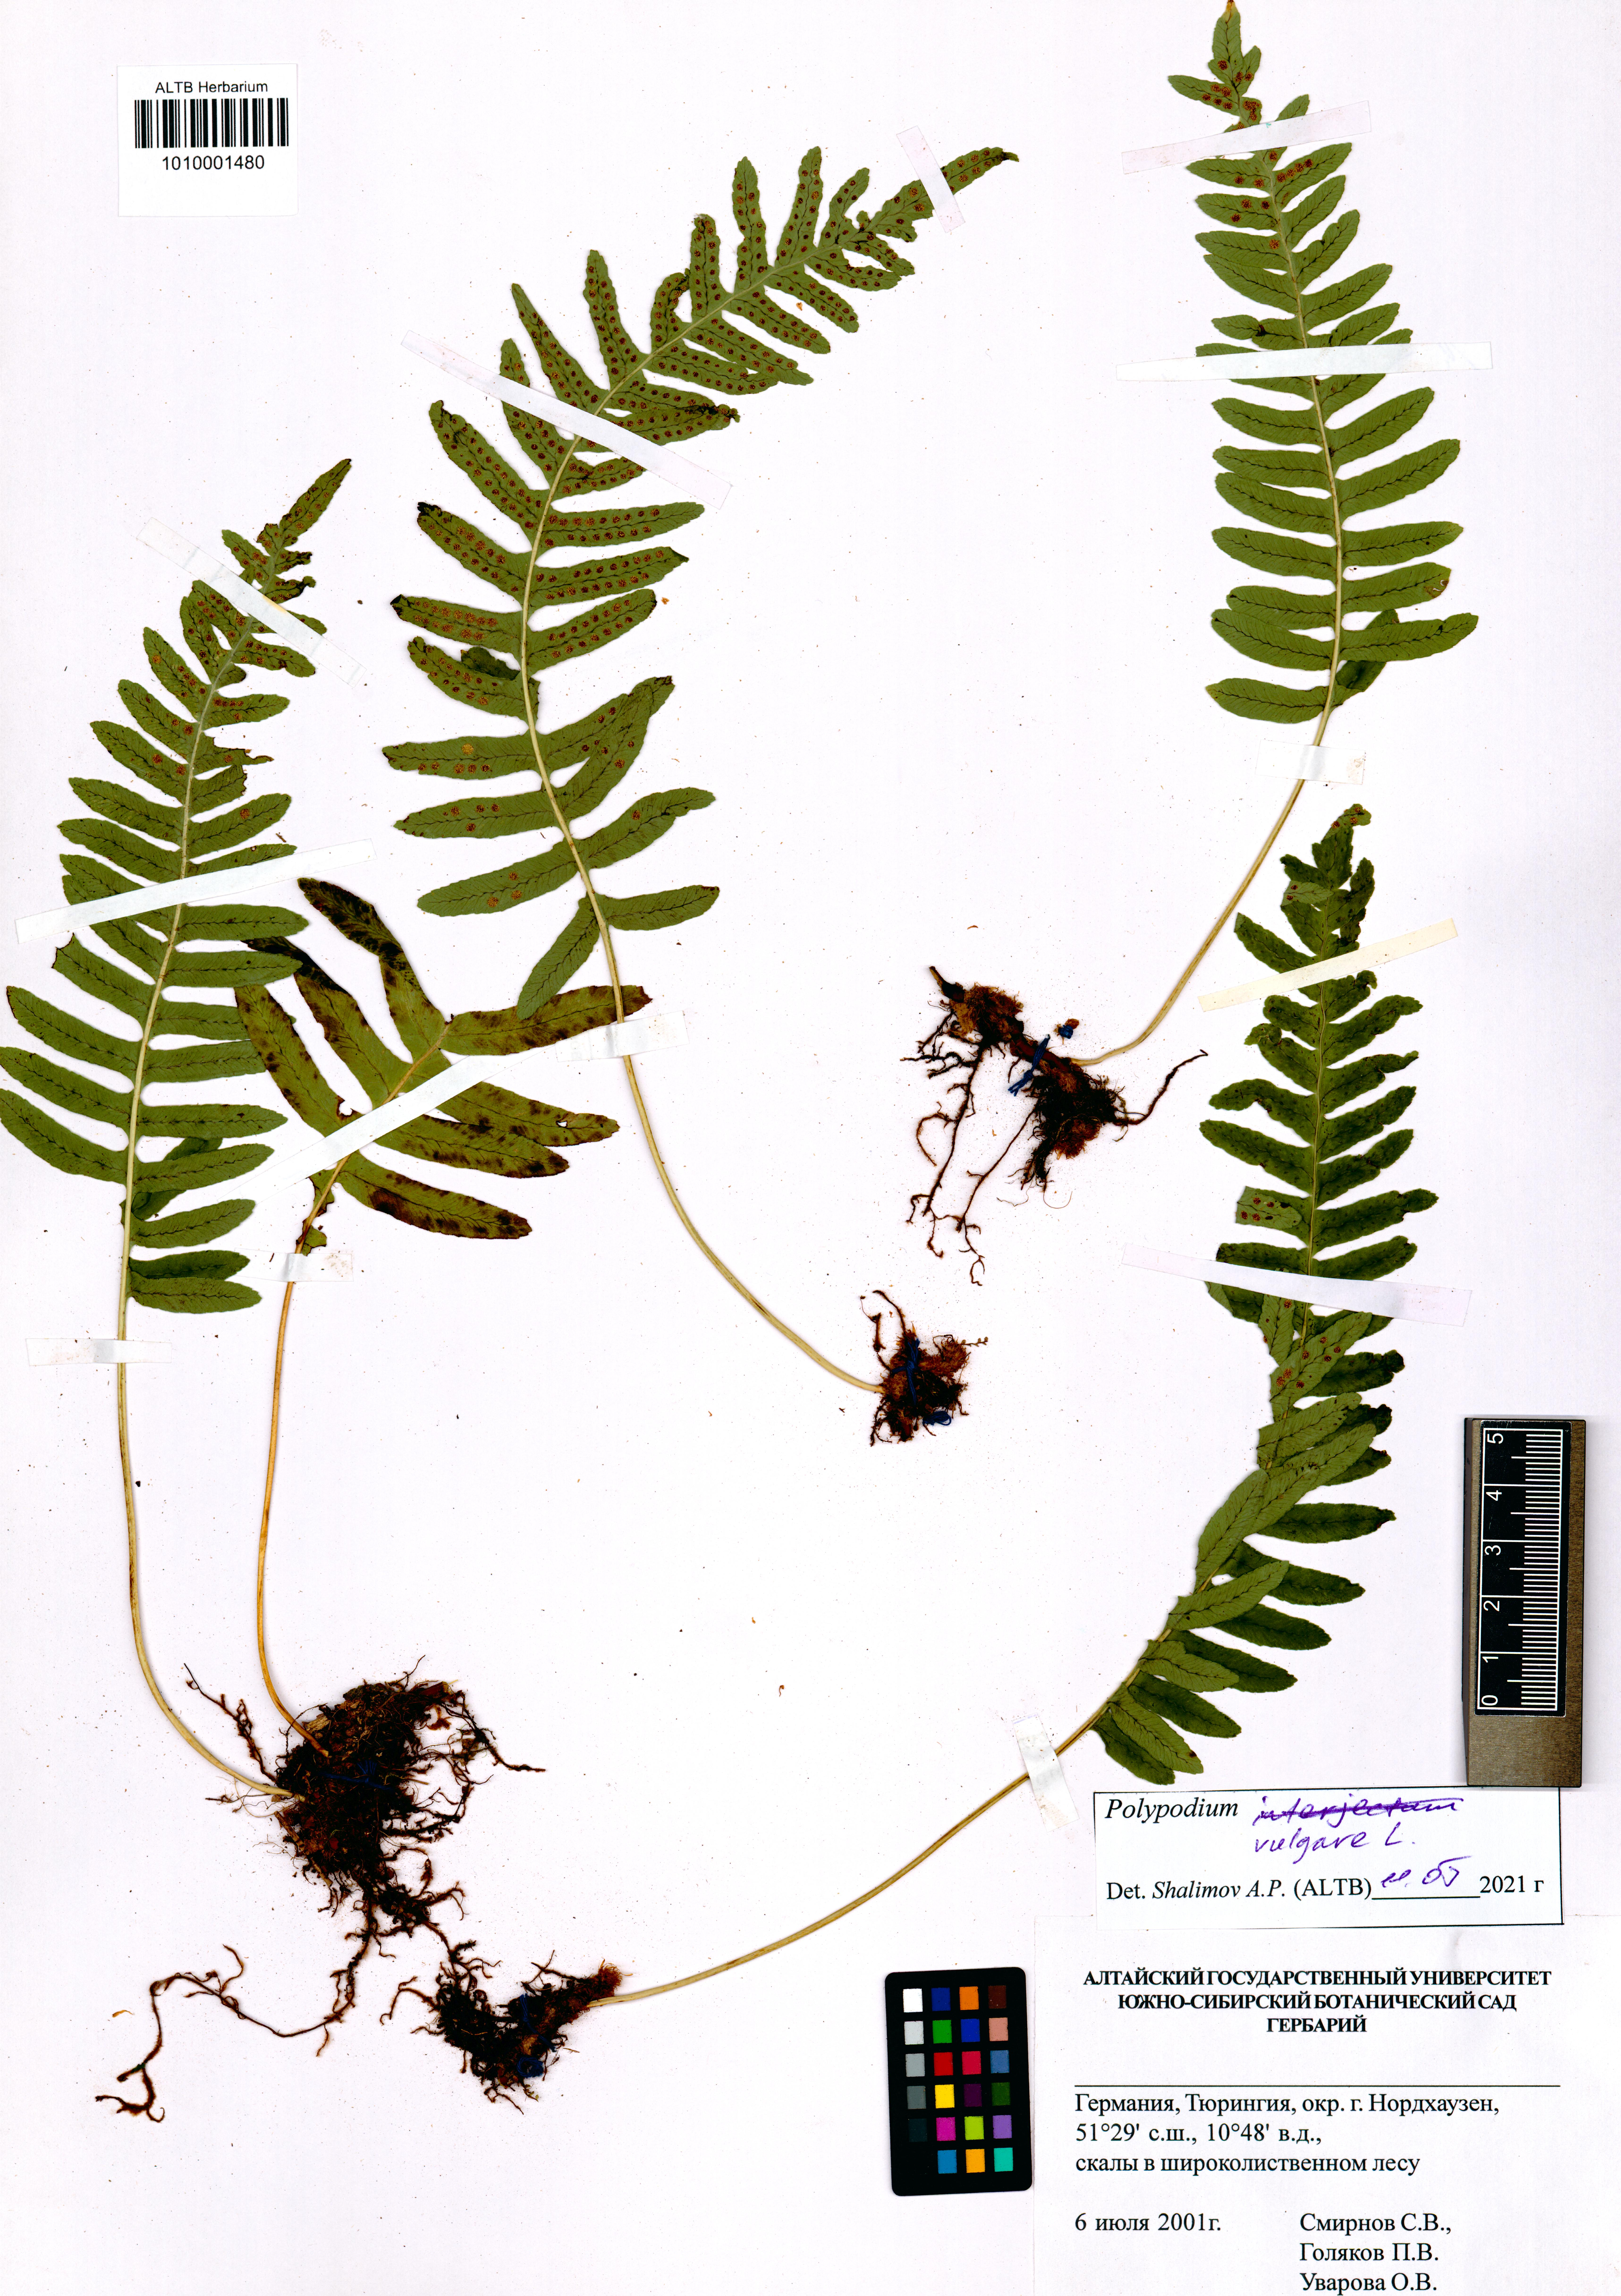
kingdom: Plantae
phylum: Tracheophyta
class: Polypodiopsida
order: Polypodiales
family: Polypodiaceae
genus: Polypodium
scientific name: Polypodium vulgare
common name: Common polypody
